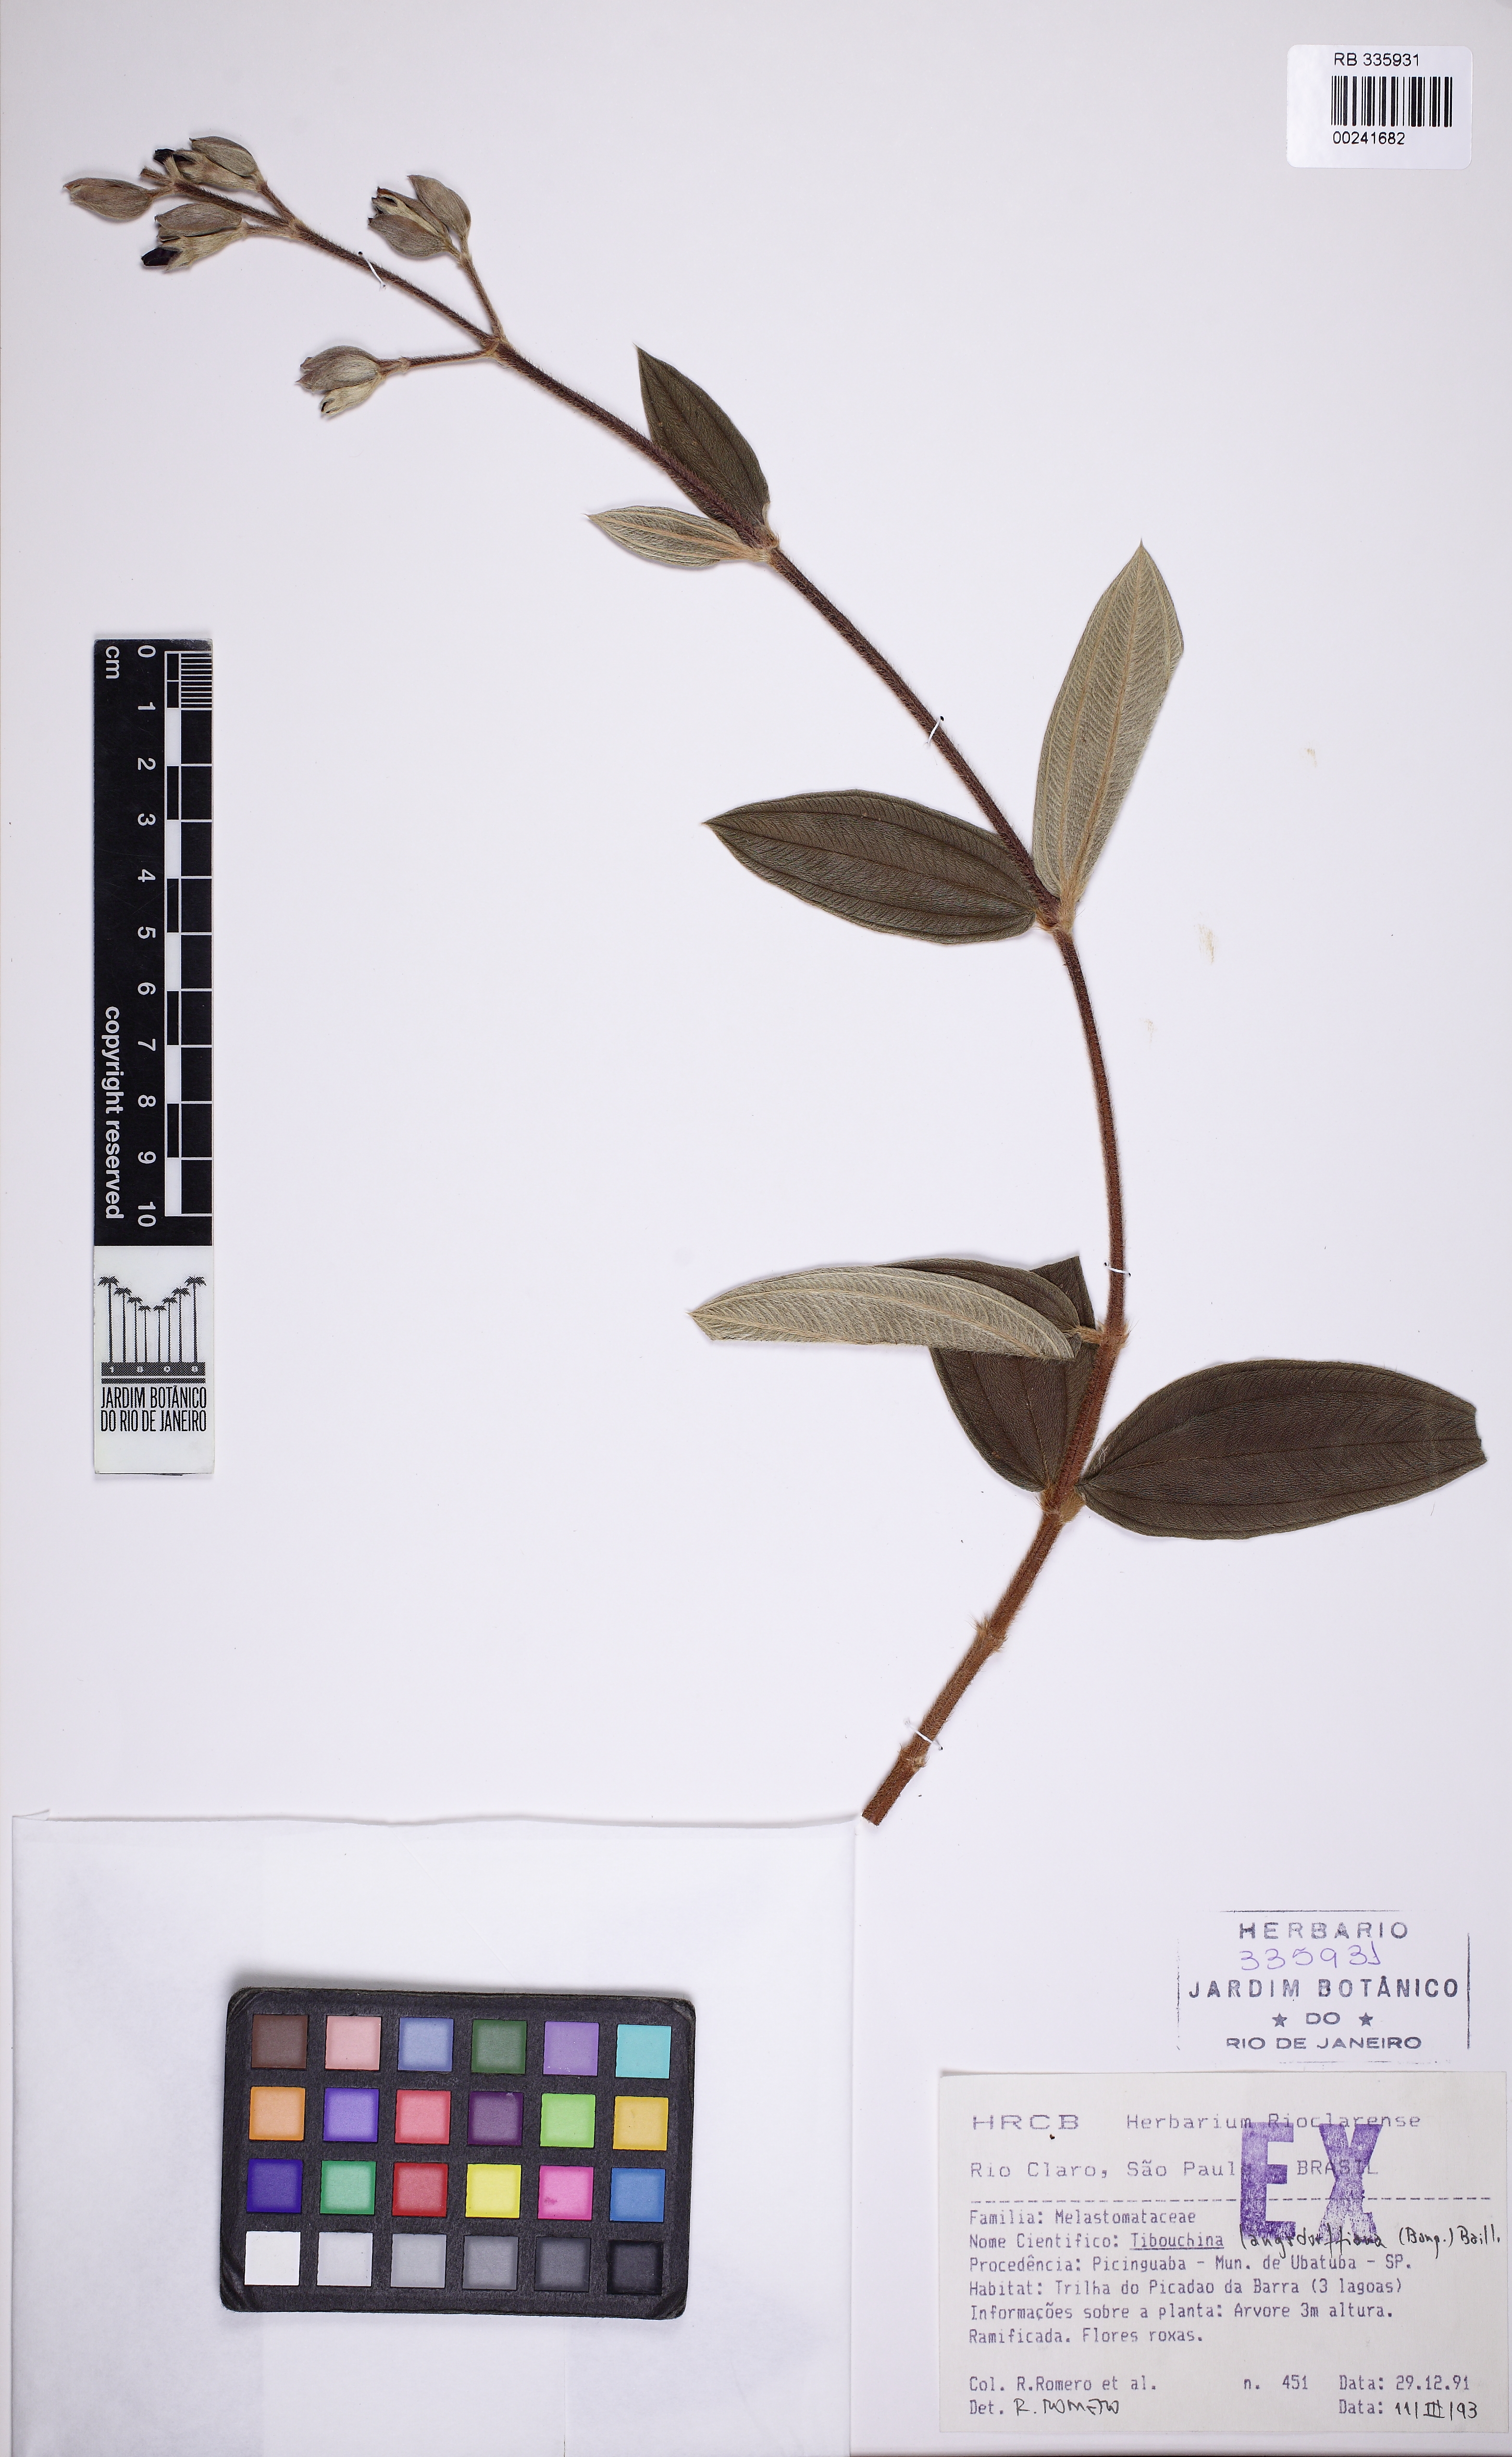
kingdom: Plantae
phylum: Tracheophyta
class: Magnoliopsida
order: Myrtales
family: Melastomataceae
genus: Pleroma
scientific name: Pleroma langsdorfianum
